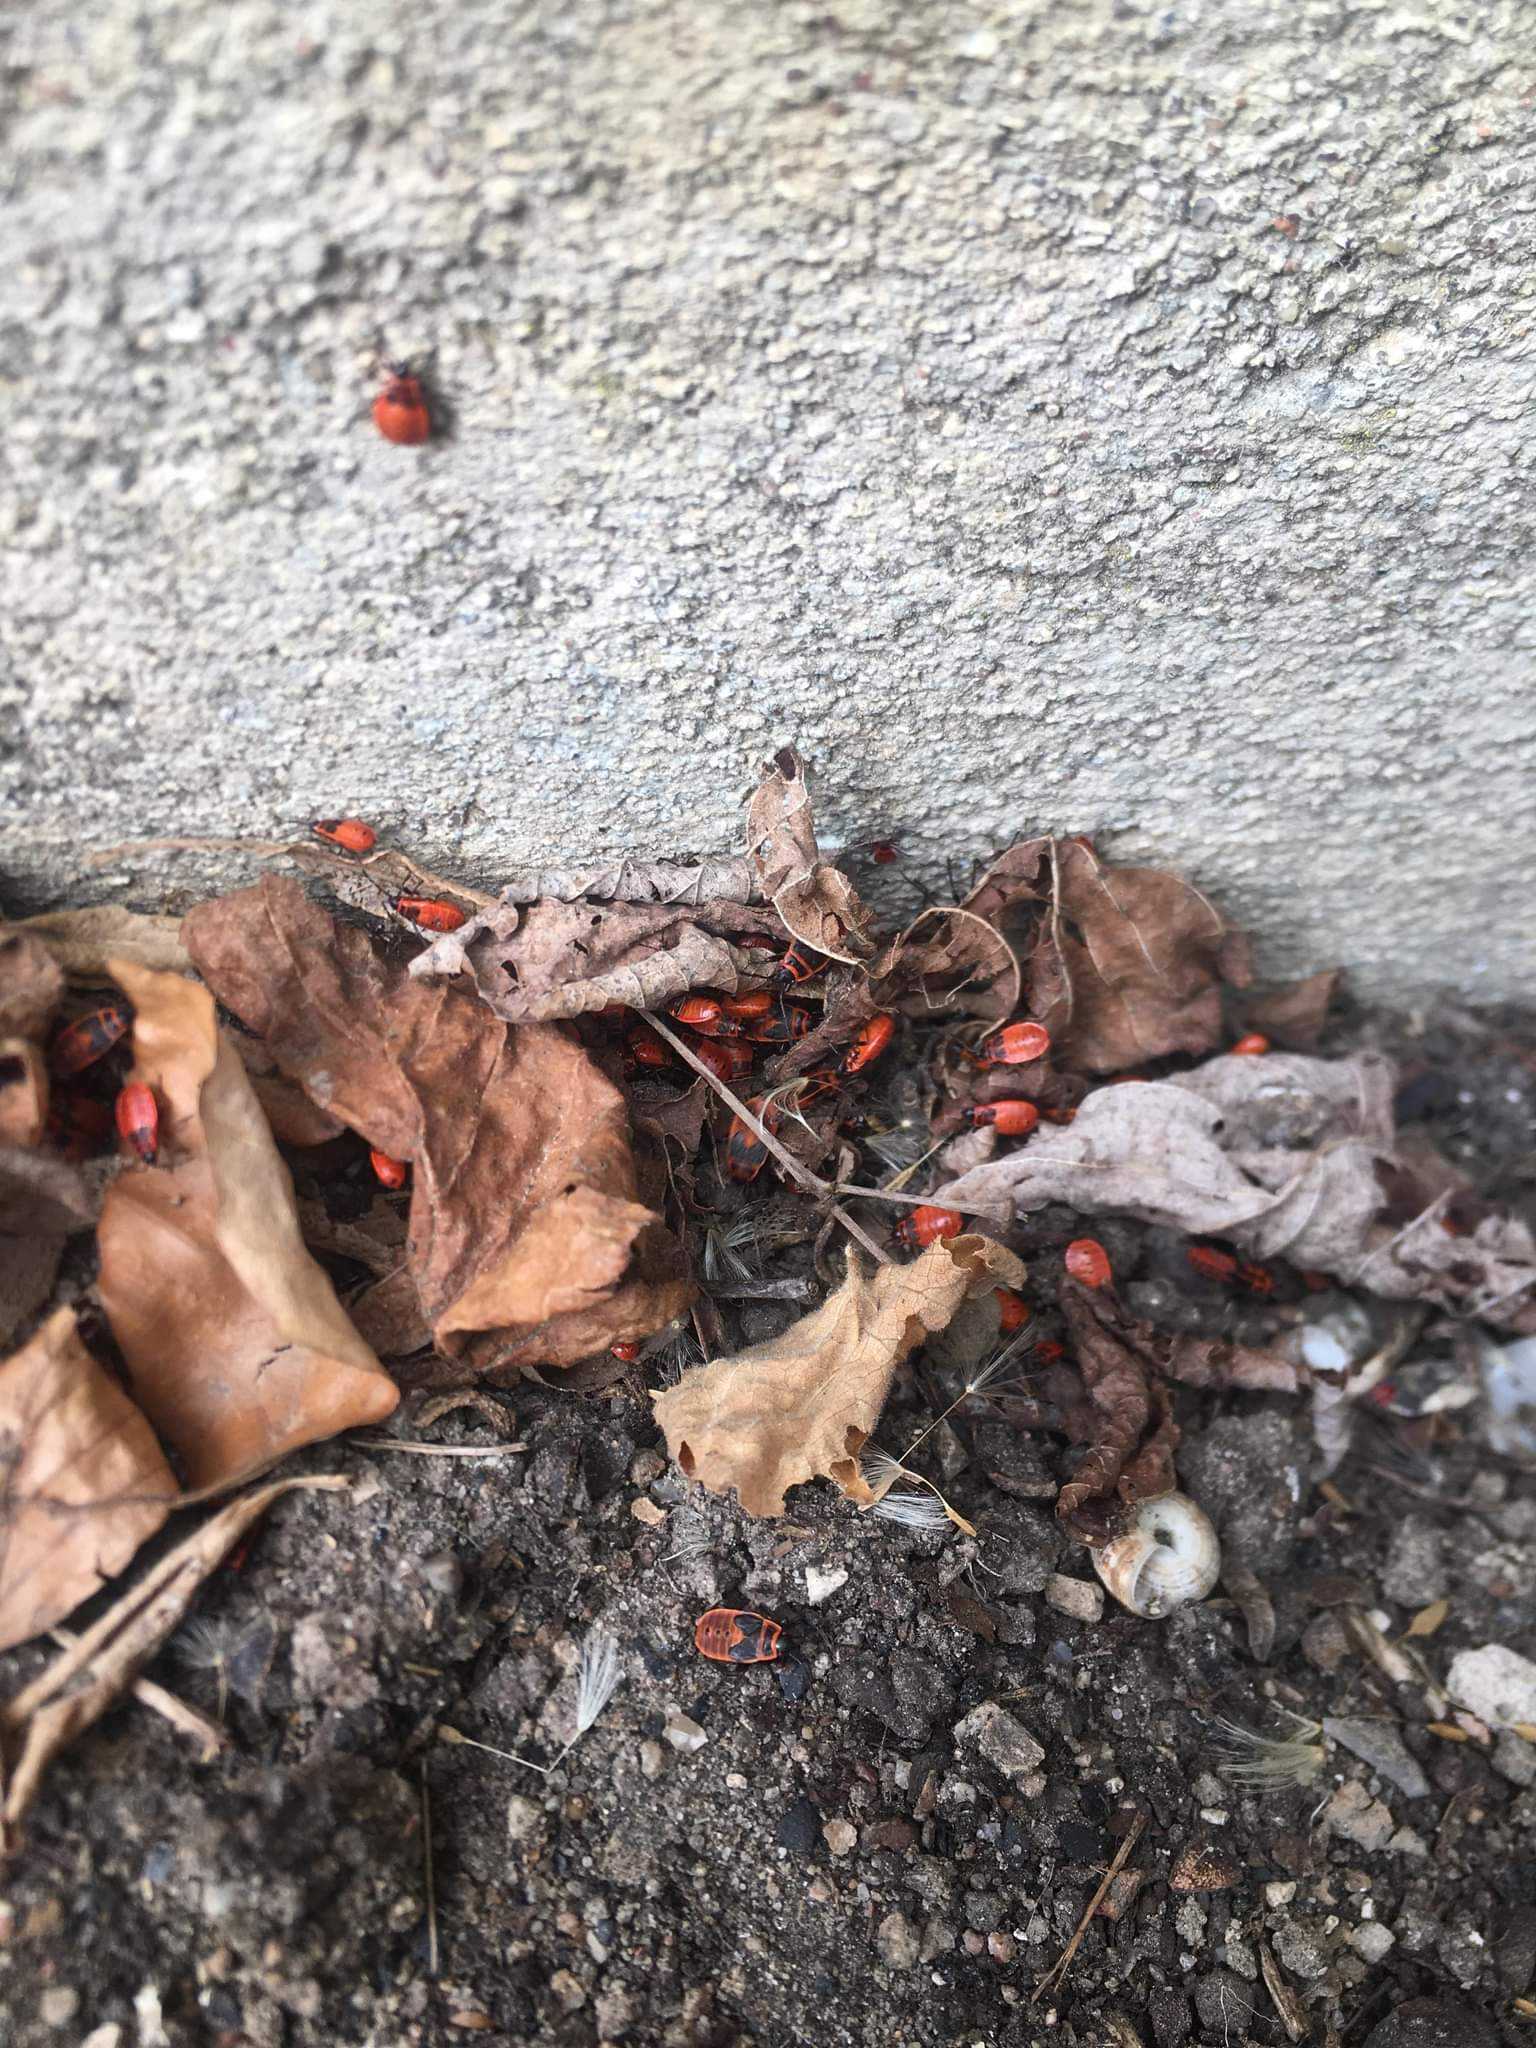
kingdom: Animalia
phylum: Arthropoda
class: Insecta
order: Hemiptera
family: Pyrrhocoridae
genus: Pyrrhocoris
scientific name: Pyrrhocoris apterus
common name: Ildtæge
